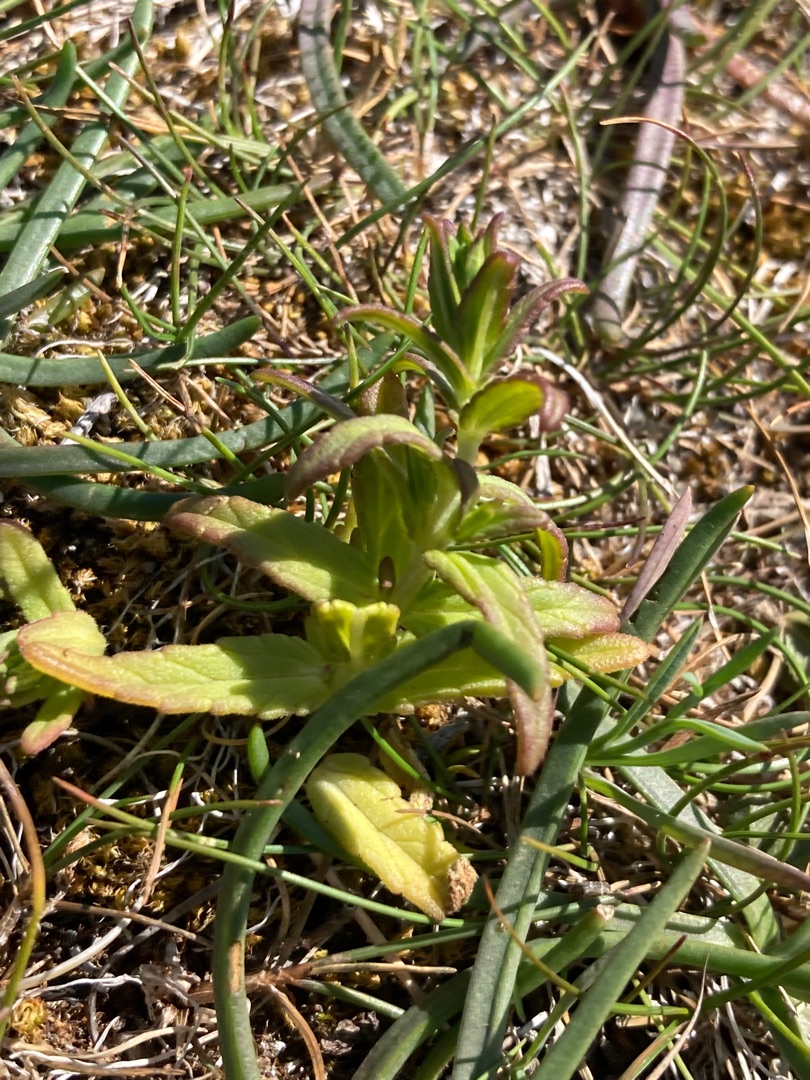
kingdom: Plantae
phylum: Tracheophyta
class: Magnoliopsida
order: Lamiales
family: Orobanchaceae
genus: Rhinanthus
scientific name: Rhinanthus
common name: Skjallerslægten
